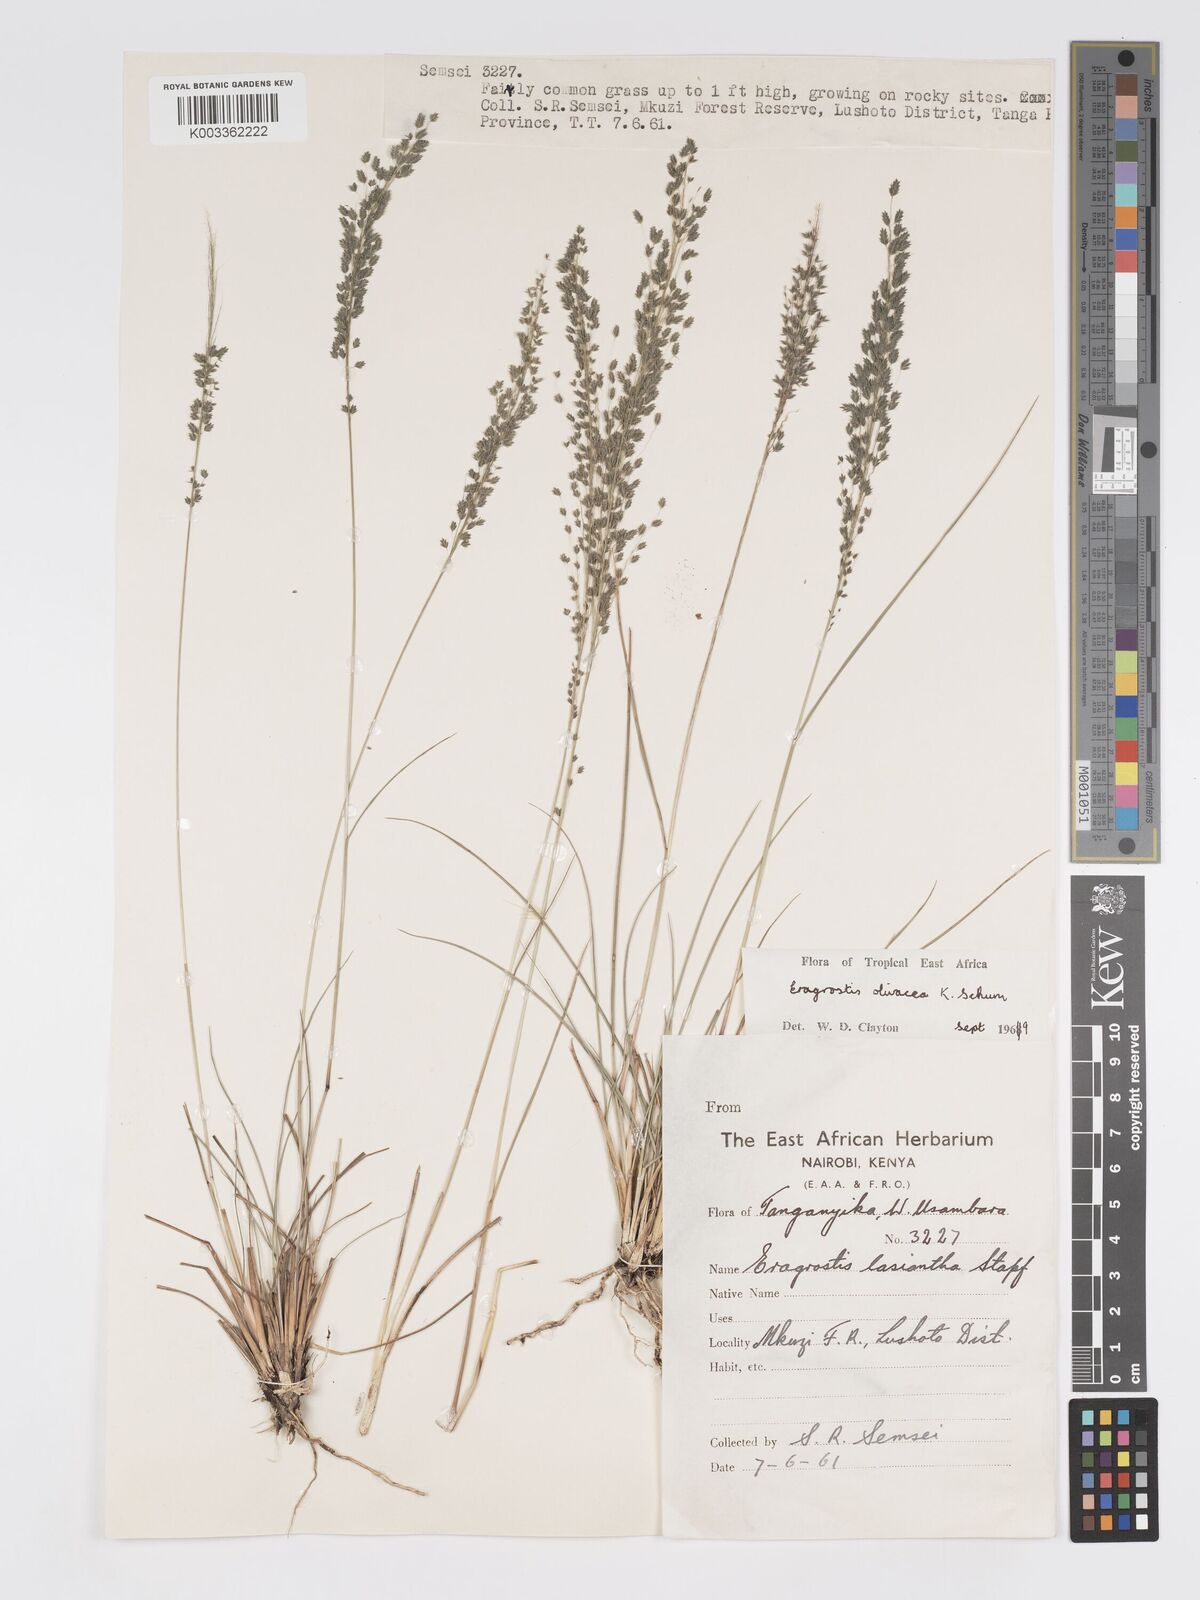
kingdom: Plantae
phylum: Tracheophyta
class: Liliopsida
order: Poales
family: Poaceae
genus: Eragrostis
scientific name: Eragrostis olivacea
